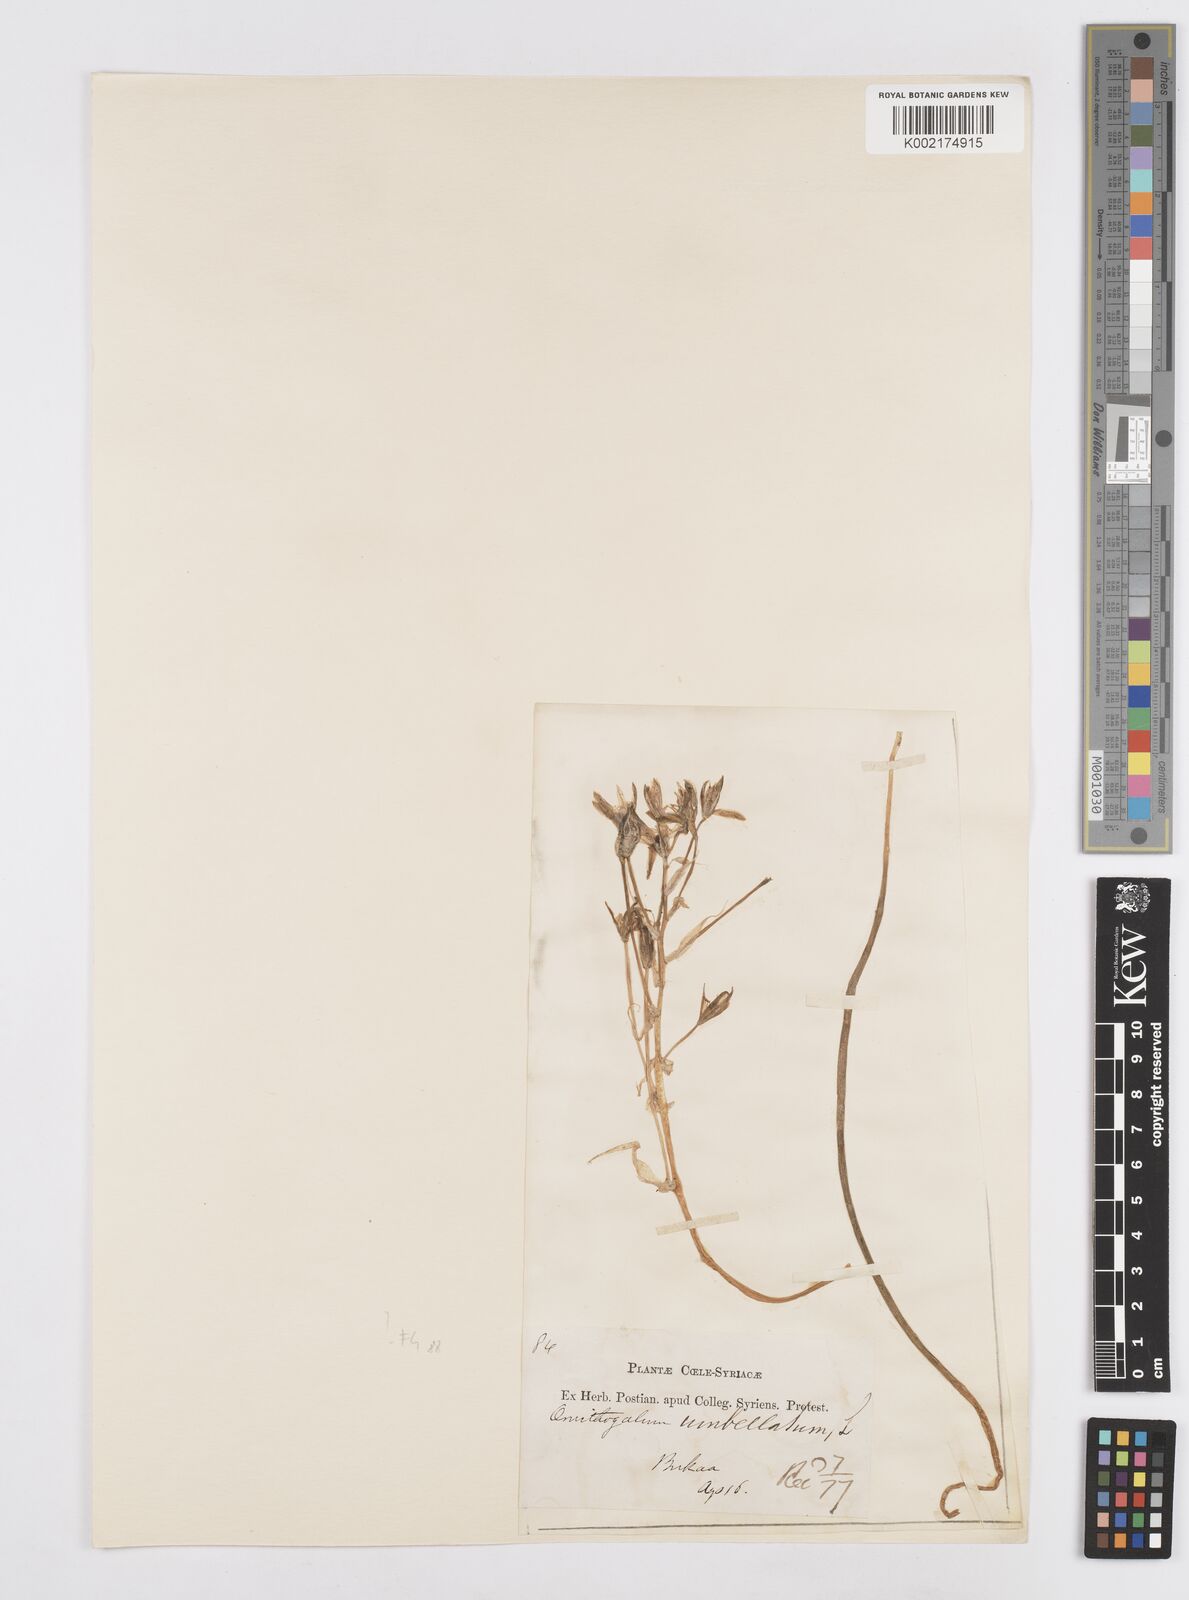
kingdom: Plantae
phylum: Tracheophyta
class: Liliopsida
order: Asparagales
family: Asparagaceae
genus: Ornithogalum
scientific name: Ornithogalum umbellatum
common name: Garden star-of-bethlehem
